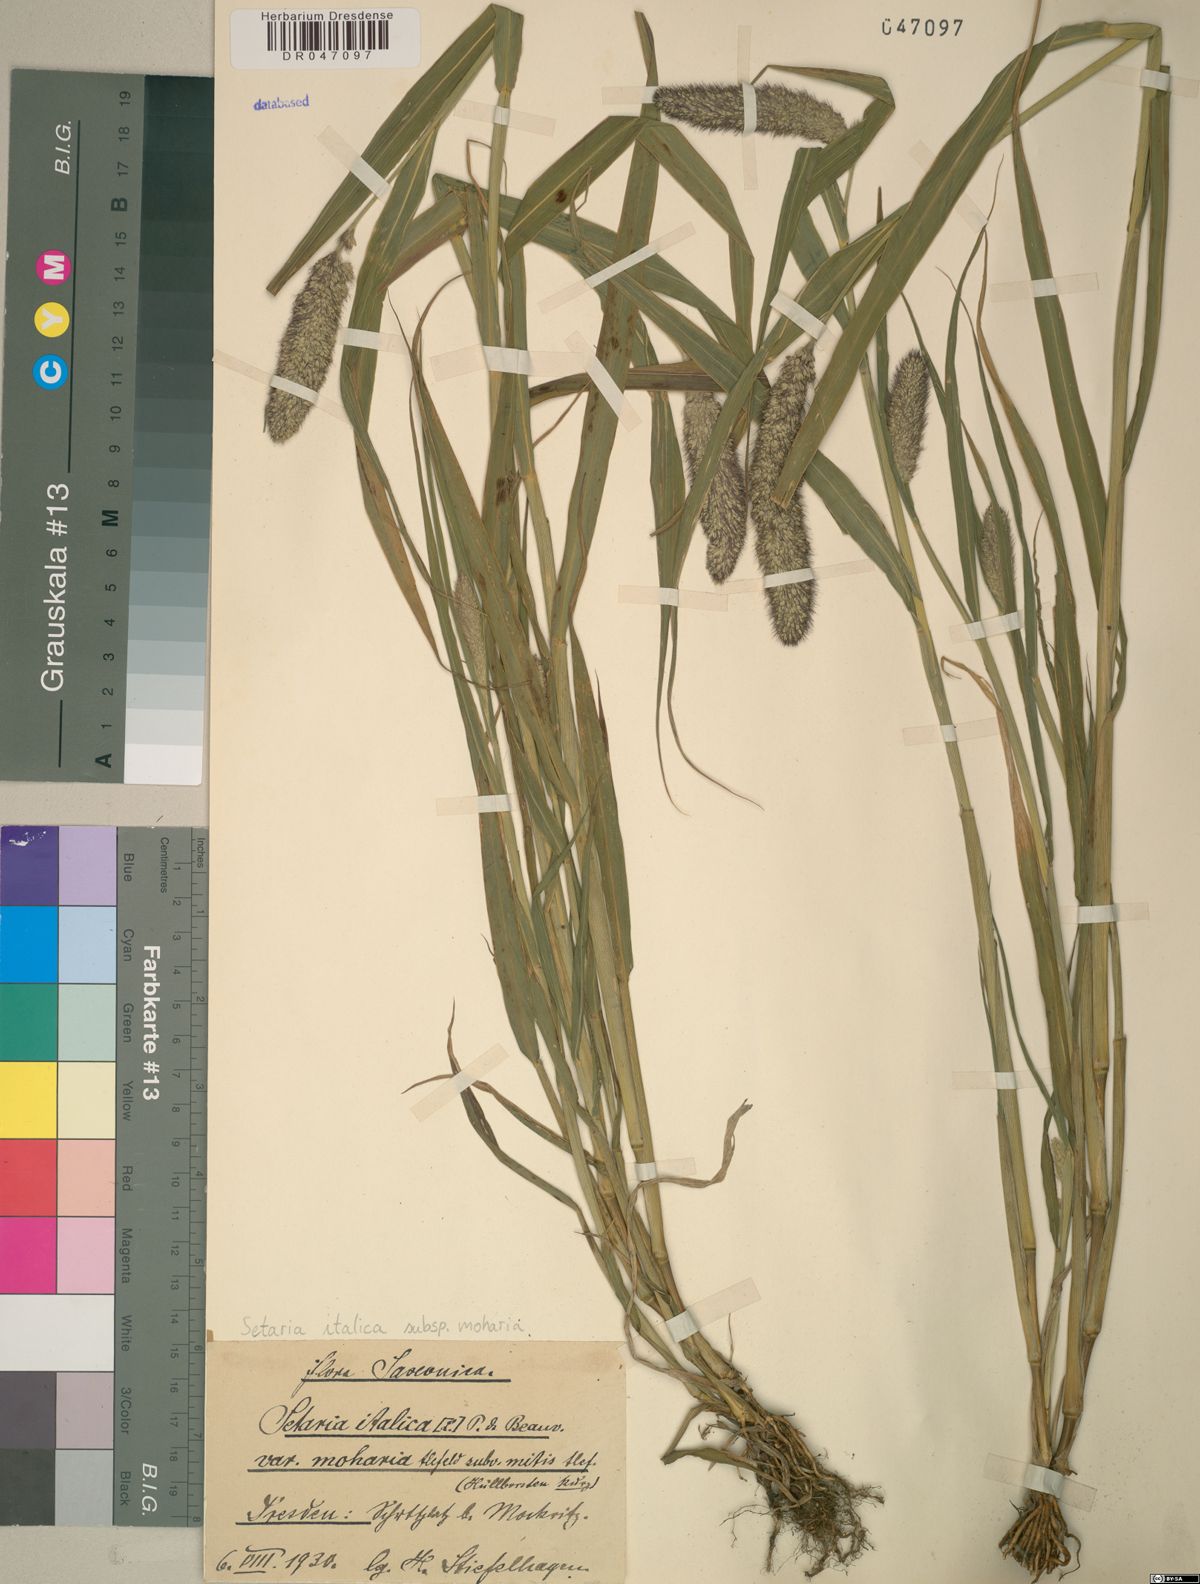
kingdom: Plantae
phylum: Tracheophyta
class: Liliopsida
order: Poales
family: Poaceae
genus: Setaria
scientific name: Setaria italica
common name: Foxtail bristle-grass
